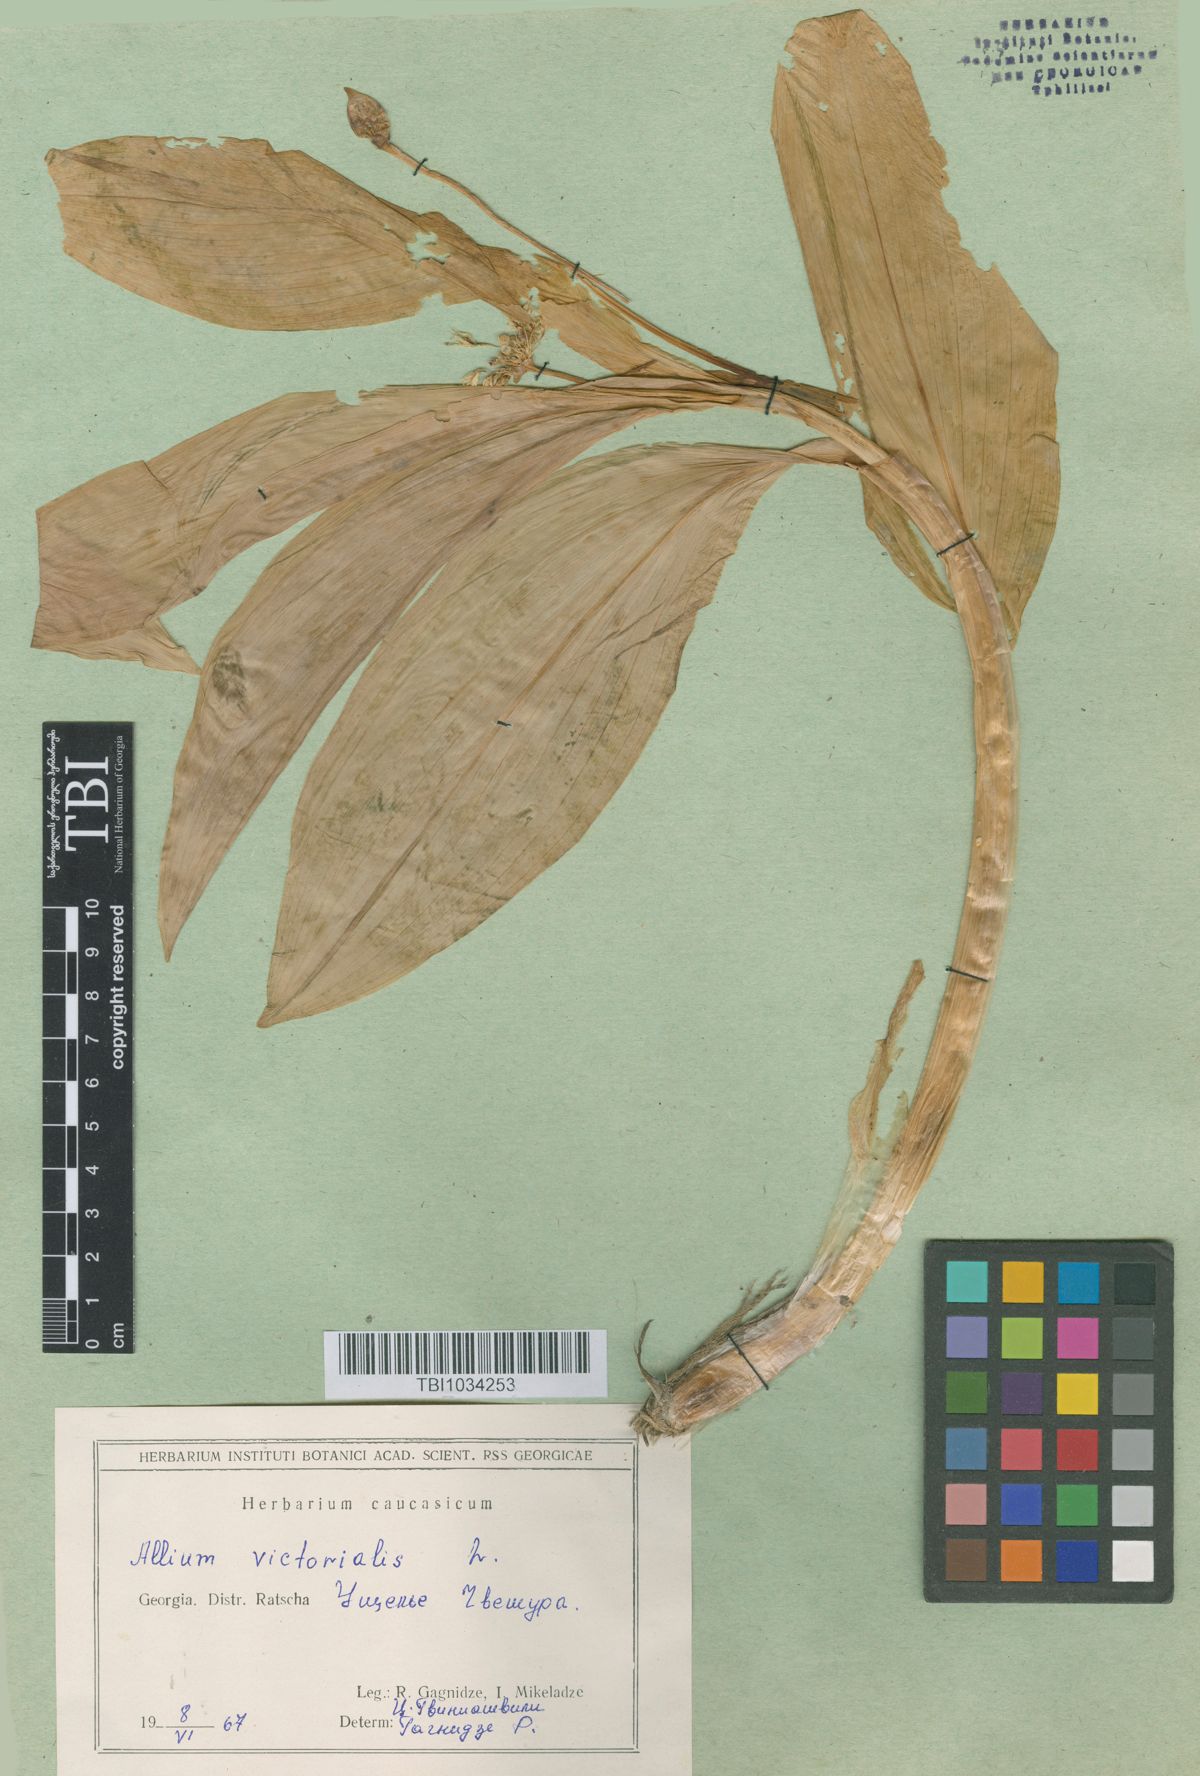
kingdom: Plantae
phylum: Tracheophyta
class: Liliopsida
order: Asparagales
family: Amaryllidaceae
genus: Allium
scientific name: Allium victorialis
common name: Alpine leek
